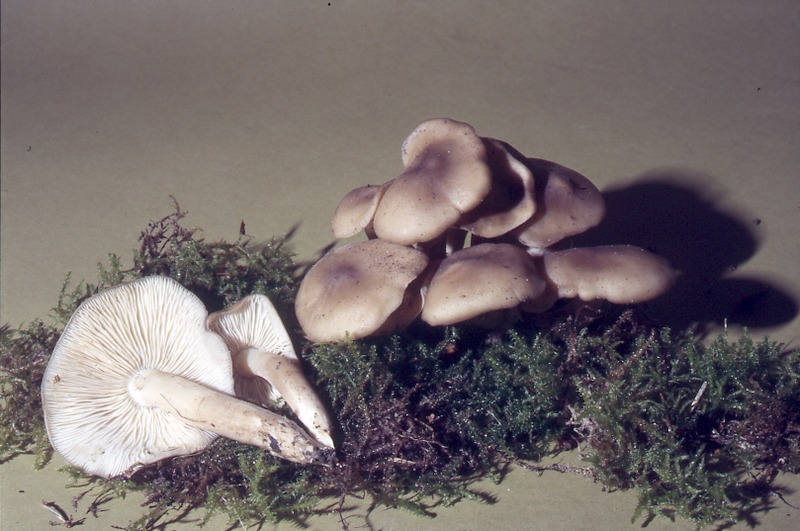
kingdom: Fungi
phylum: Basidiomycota
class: Agaricomycetes
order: Agaricales
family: Lyophyllaceae
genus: Lyophyllum
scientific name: Lyophyllum decastes
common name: Clustered domecap
